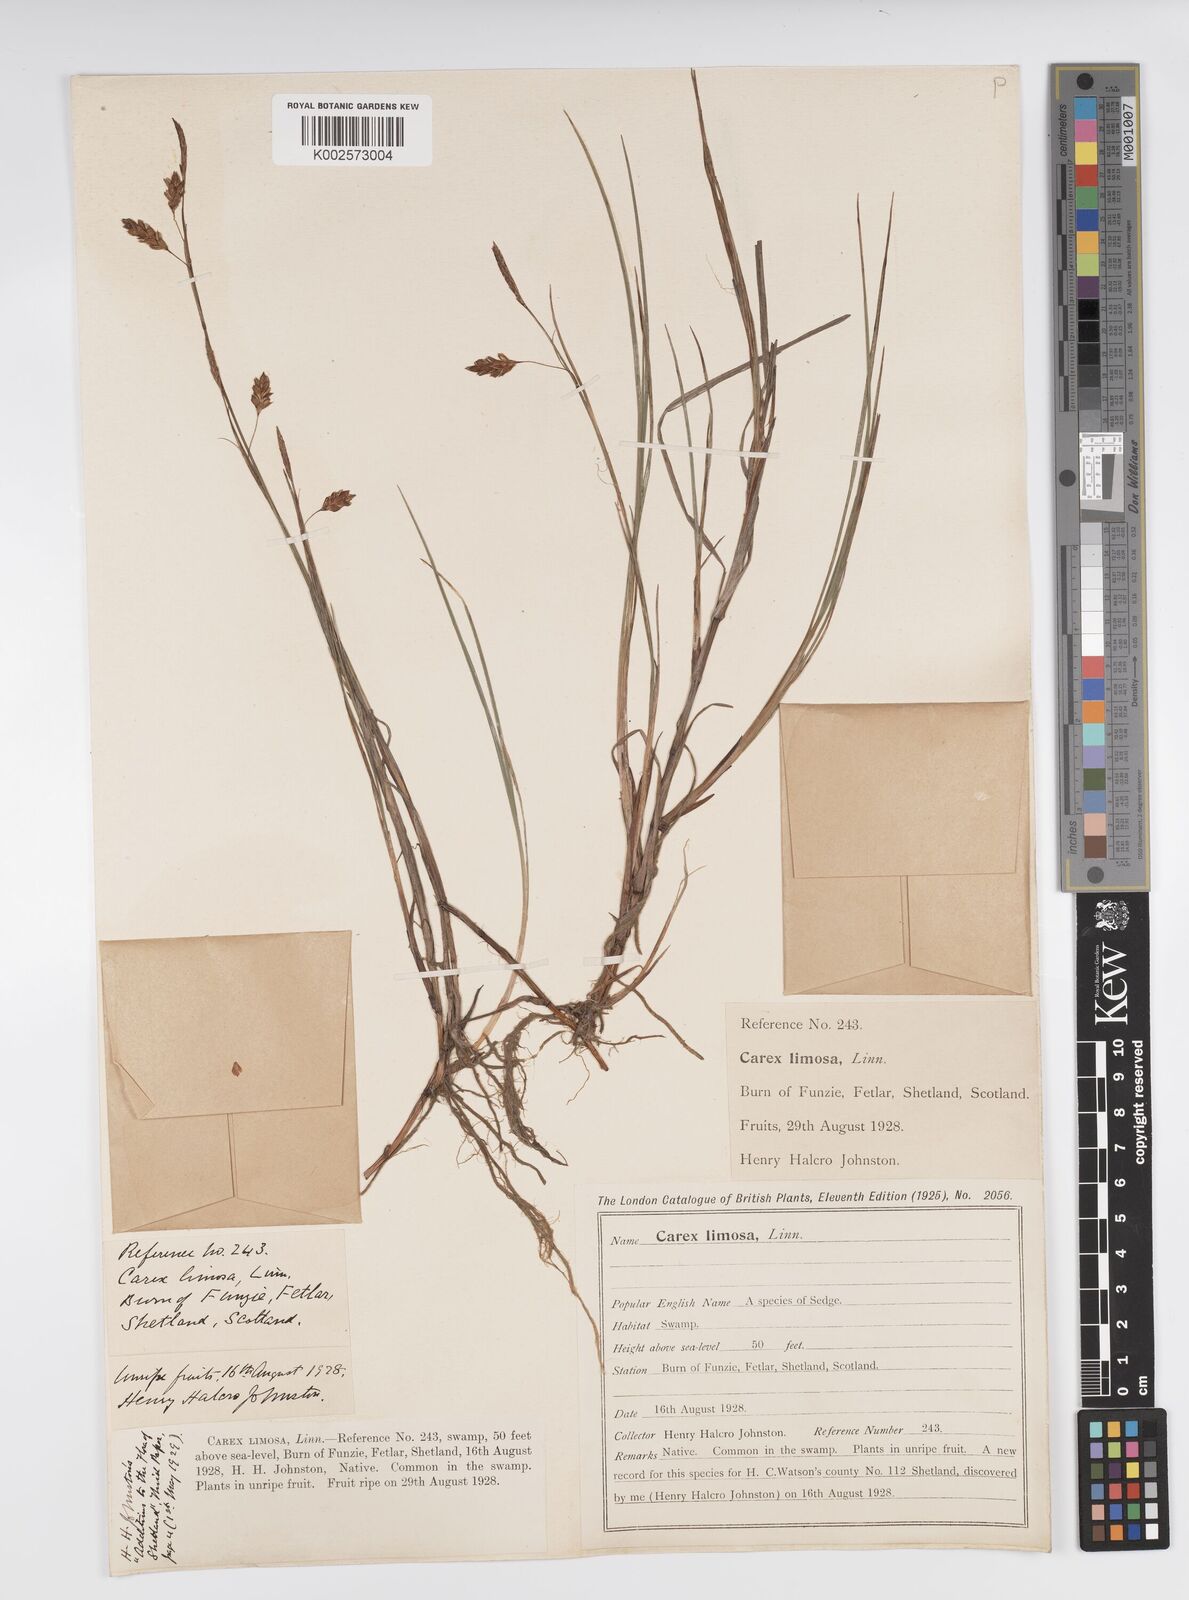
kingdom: Plantae
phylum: Tracheophyta
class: Liliopsida
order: Poales
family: Cyperaceae
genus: Carex
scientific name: Carex limosa
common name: Bog sedge
